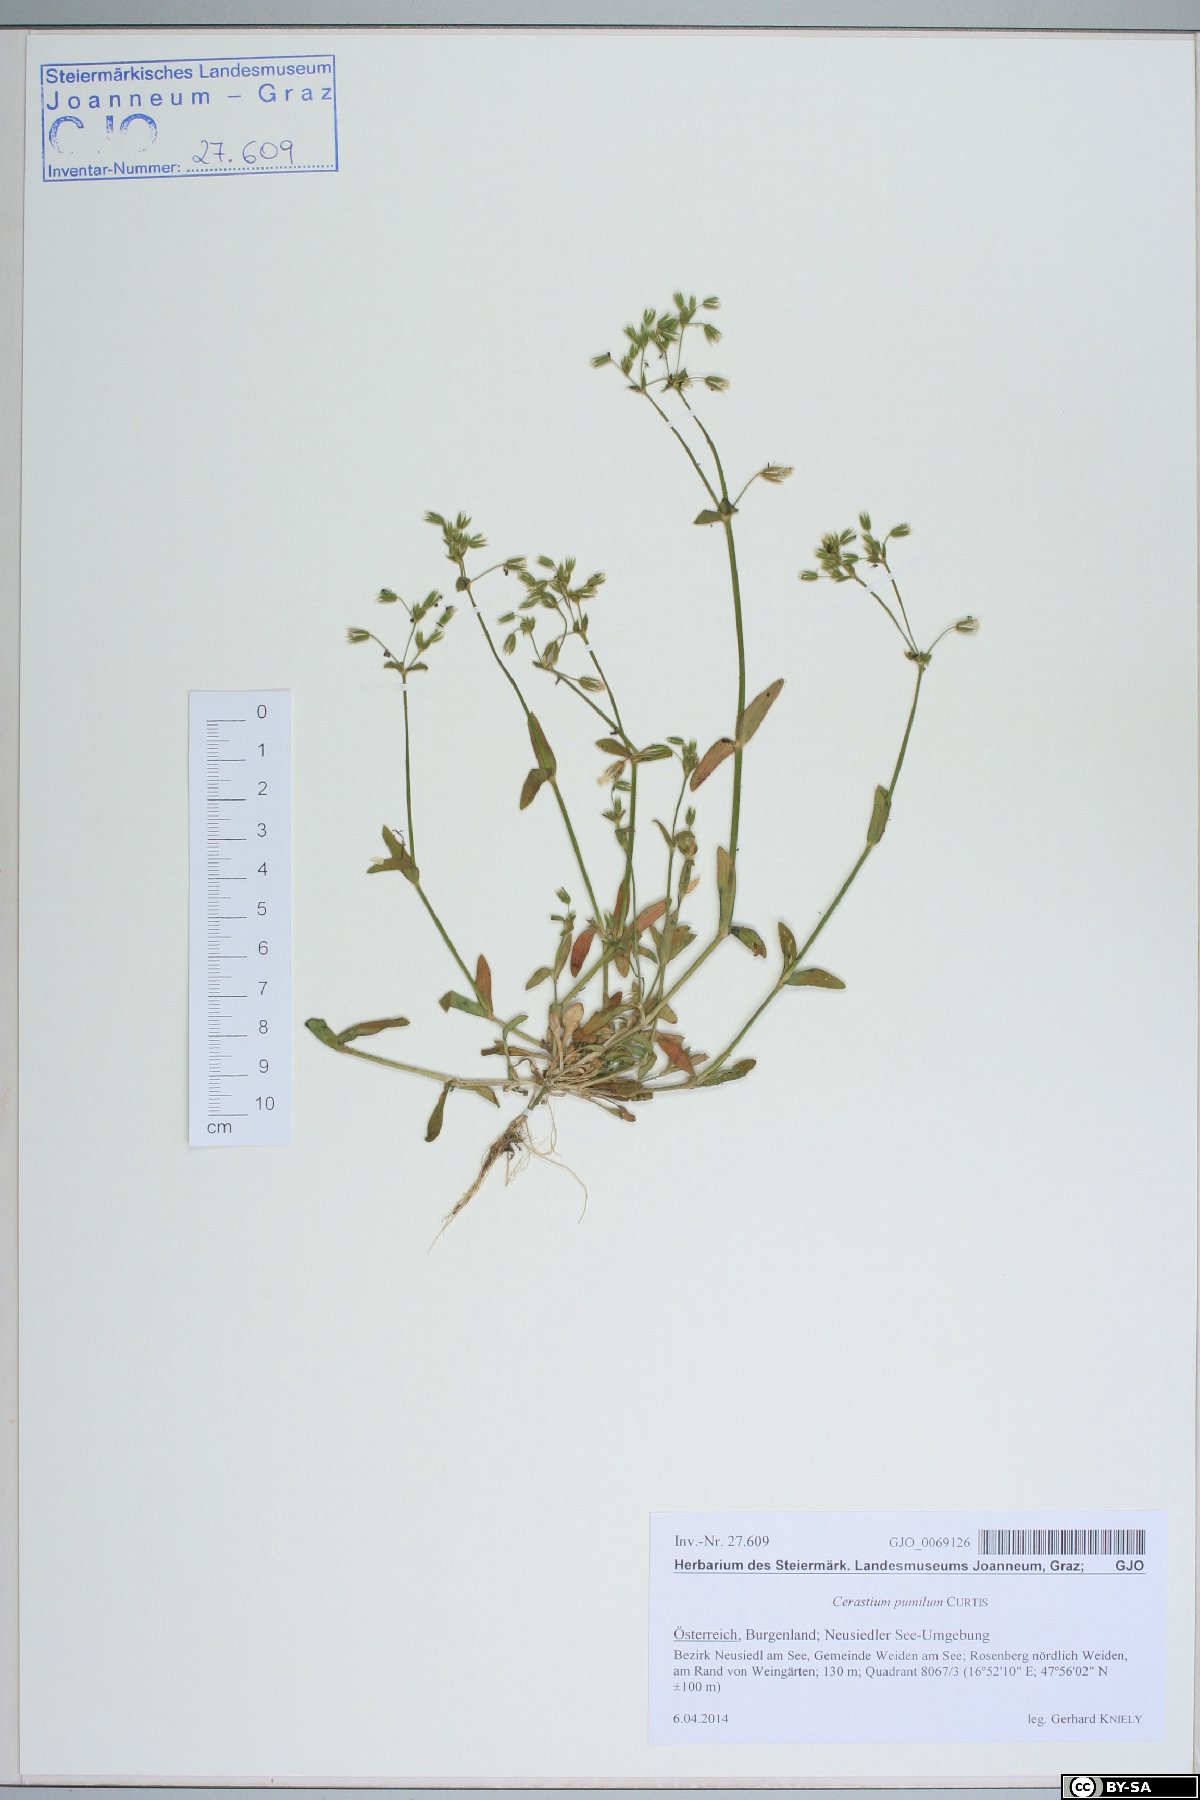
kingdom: Plantae
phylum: Tracheophyta
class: Magnoliopsida
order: Caryophyllales
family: Caryophyllaceae
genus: Cerastium
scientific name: Cerastium pumilum
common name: Dwarf mouse-ear
